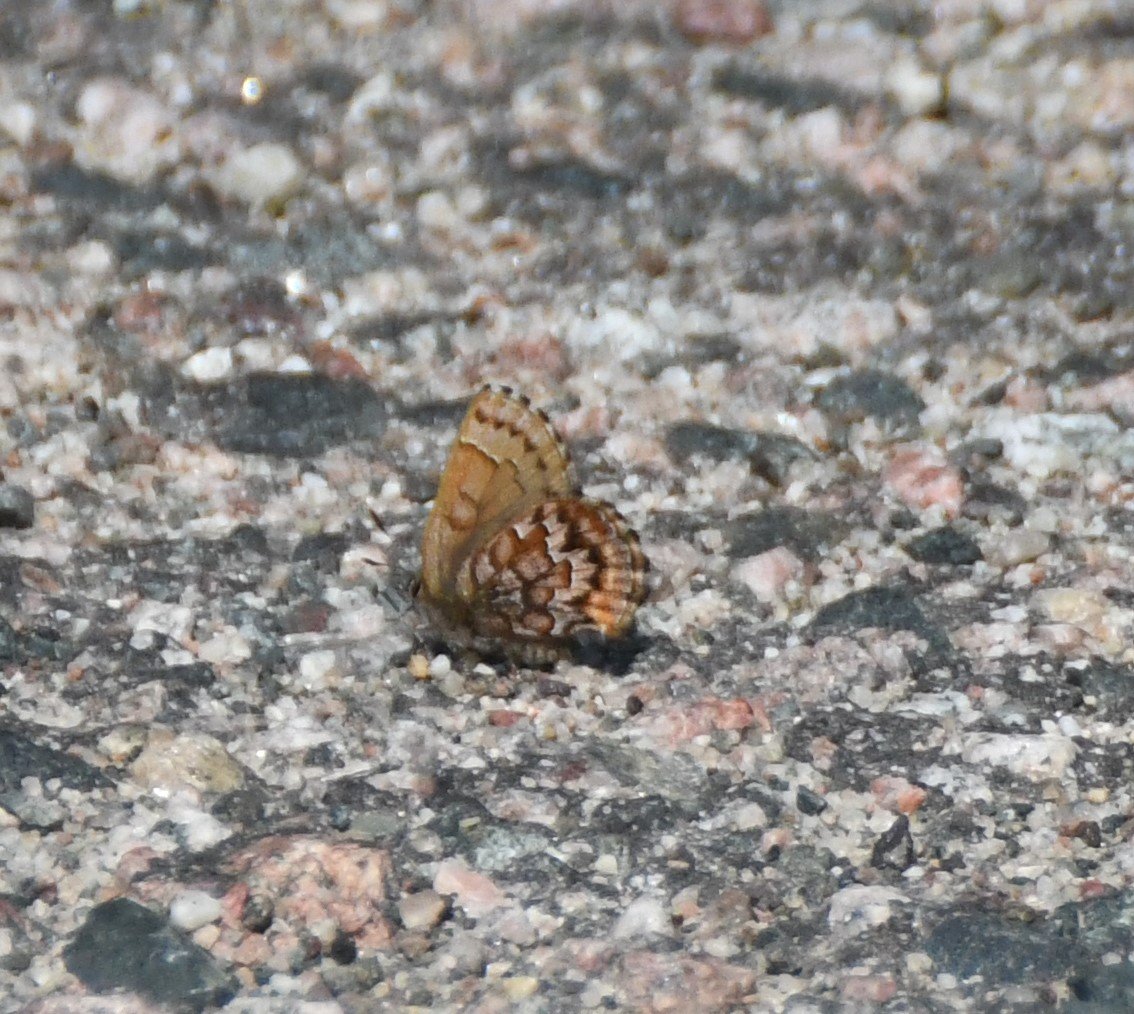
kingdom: Animalia
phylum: Arthropoda
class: Insecta
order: Lepidoptera
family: Lycaenidae
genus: Incisalia
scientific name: Incisalia niphon
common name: Eastern Pine Elfin
